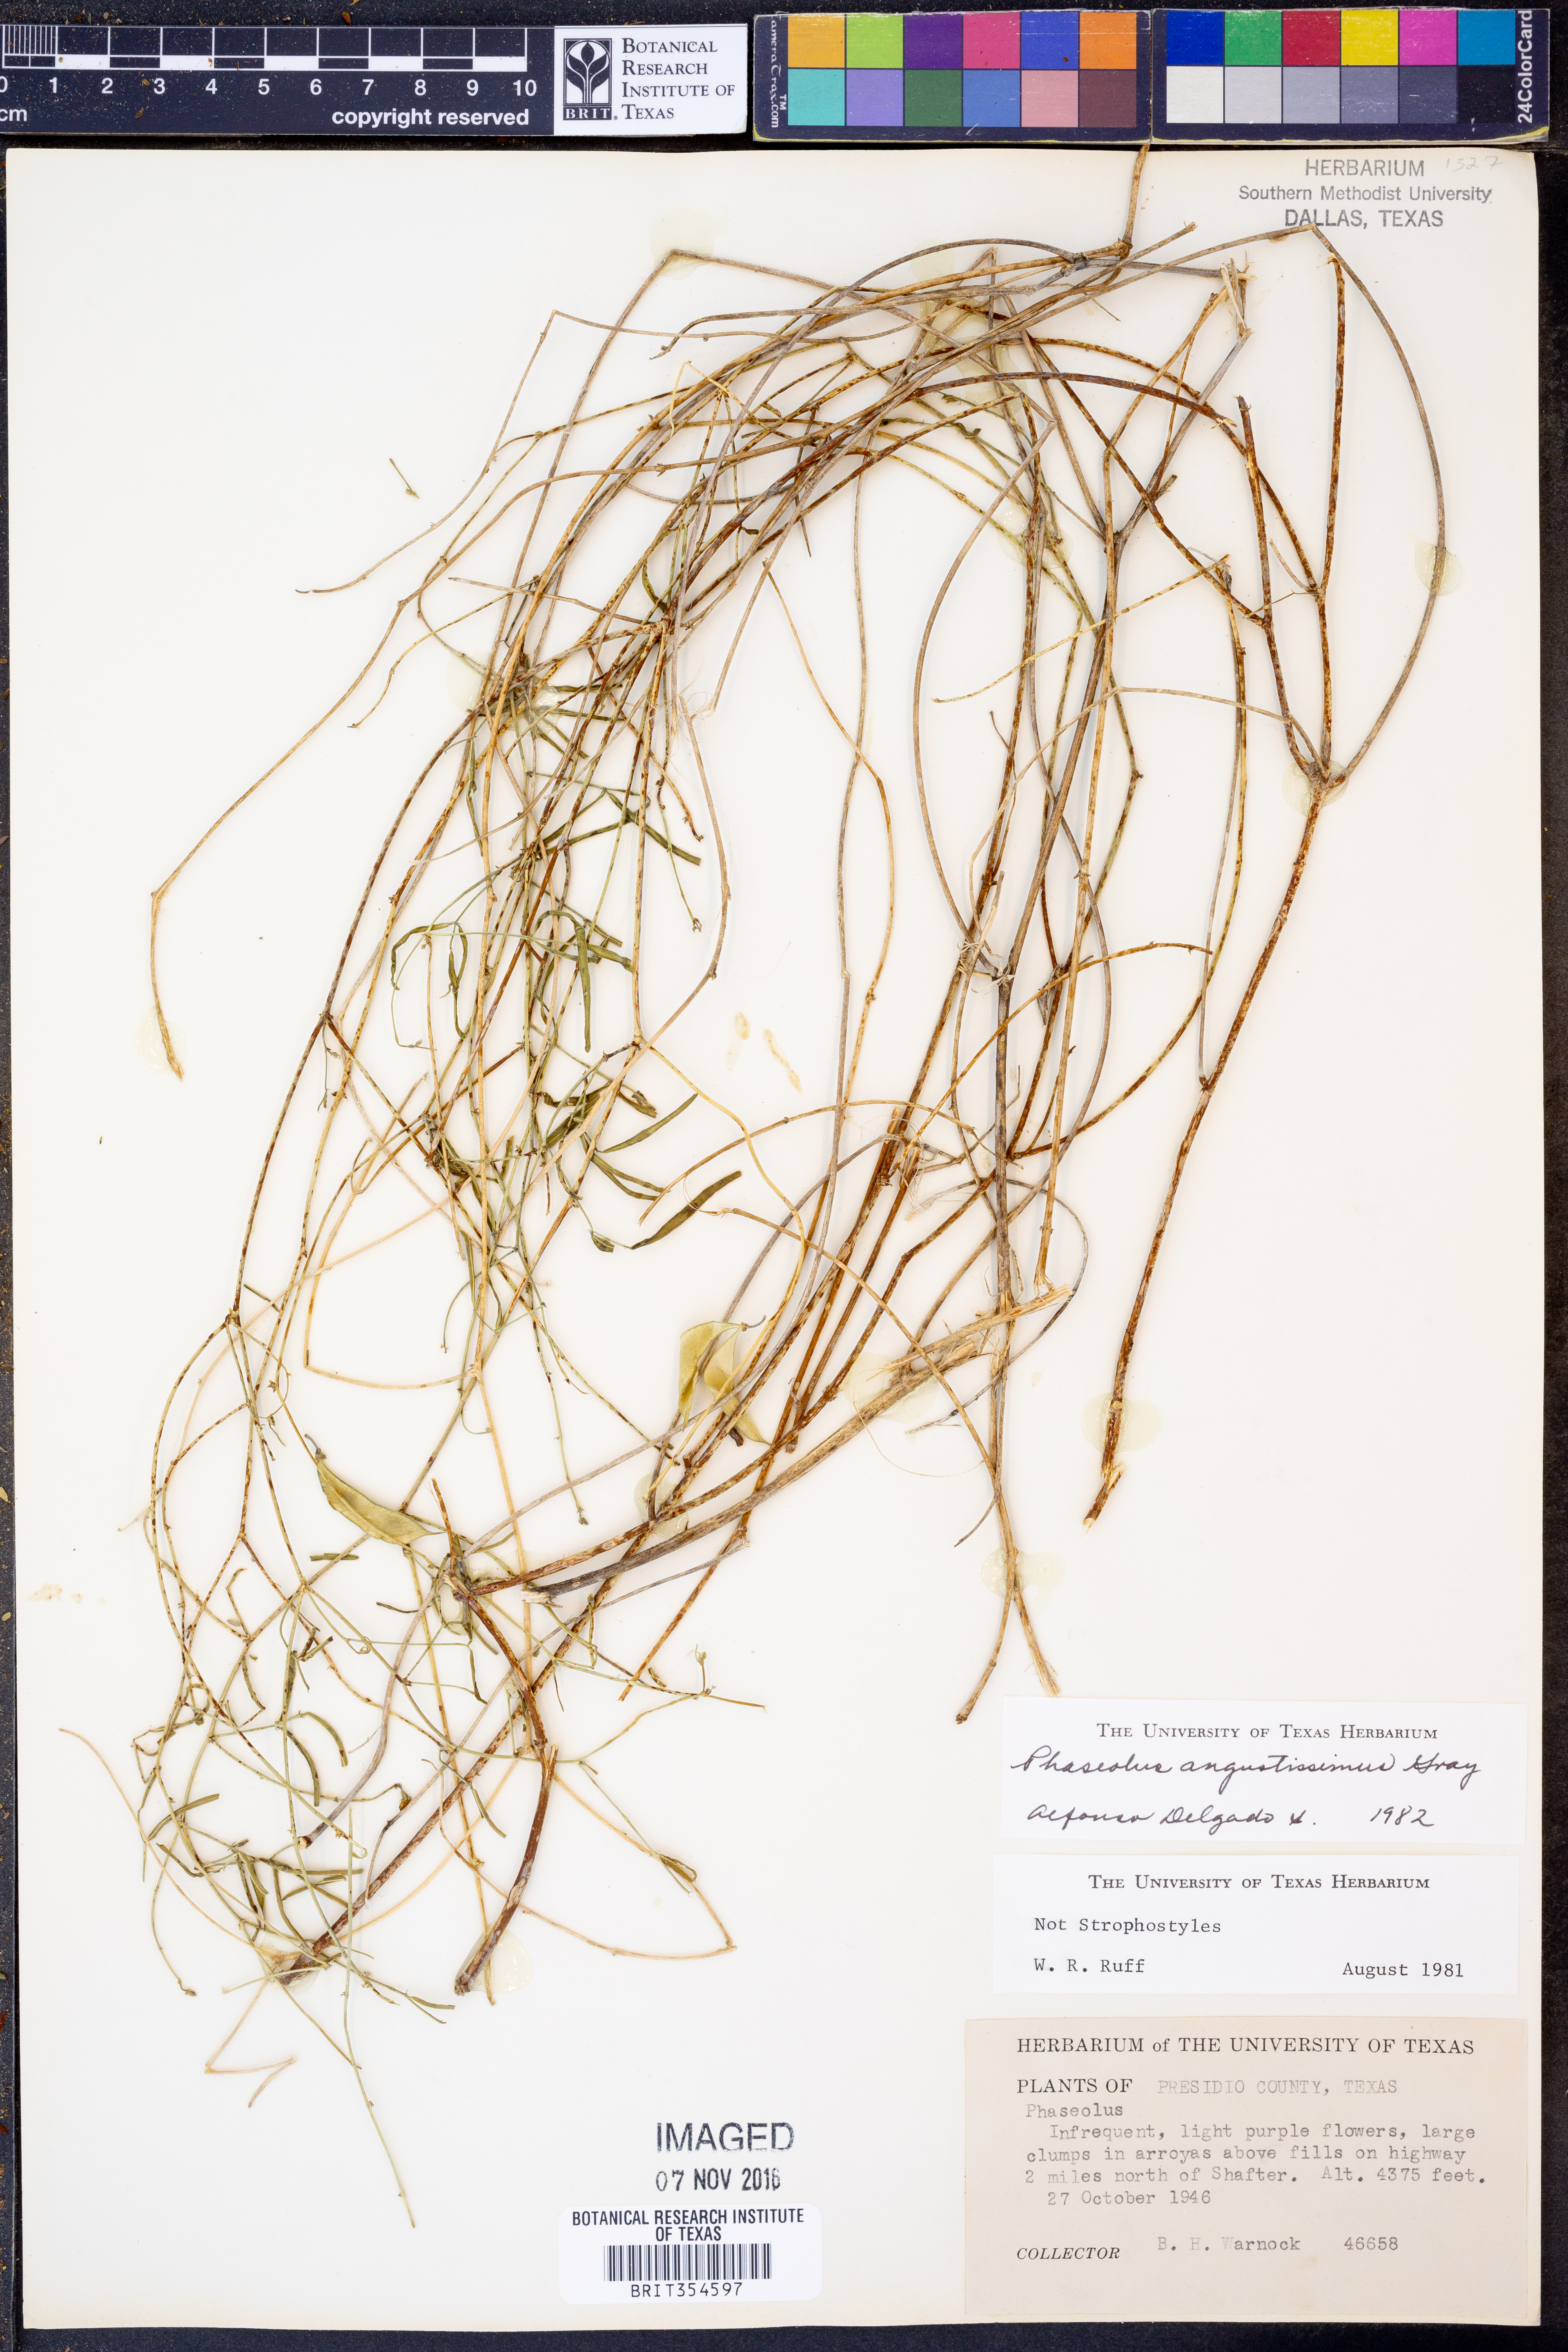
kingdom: Plantae
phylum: Tracheophyta
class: Magnoliopsida
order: Fabales
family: Fabaceae
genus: Phaseolus
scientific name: Phaseolus angustissimus
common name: Slimleaf bean
